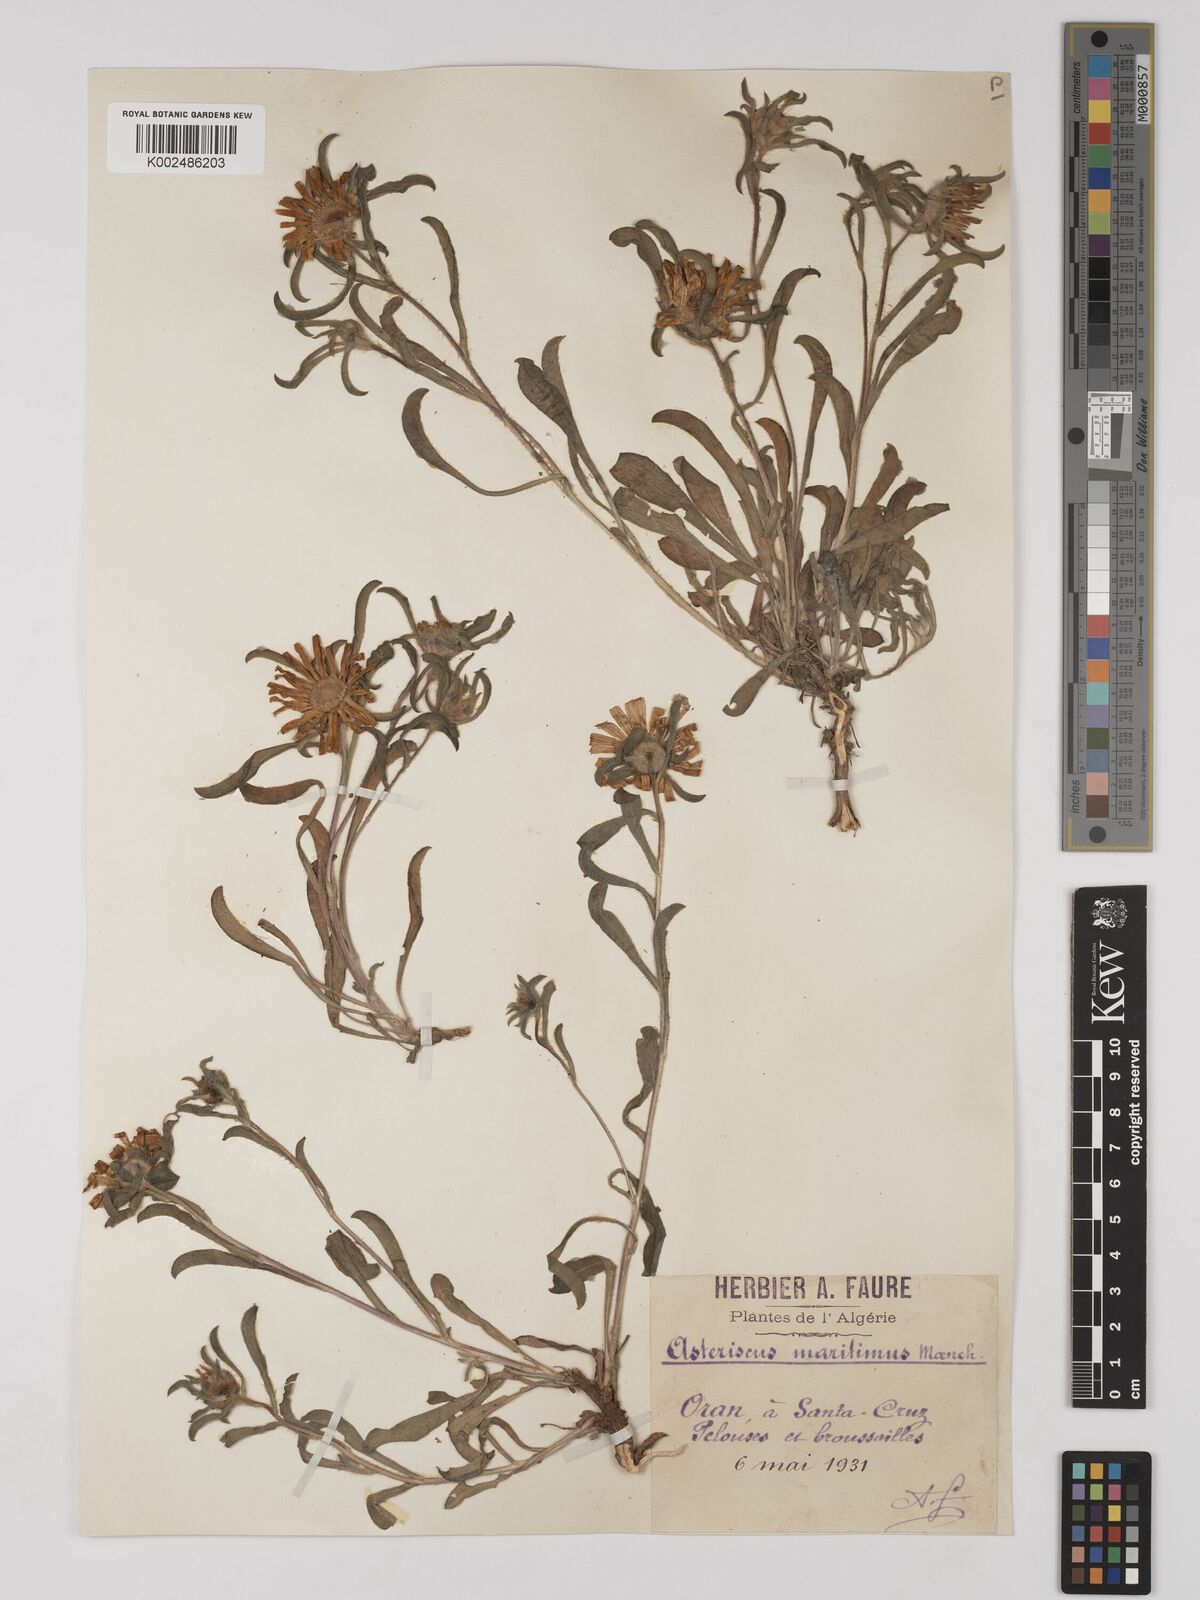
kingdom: Plantae
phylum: Tracheophyta
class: Magnoliopsida
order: Asterales
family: Asteraceae
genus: Pallenis
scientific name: Pallenis maritima
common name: Golden coin daisy
